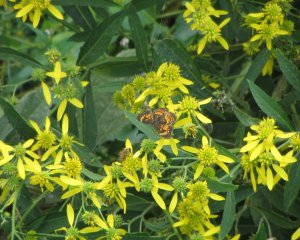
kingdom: Animalia
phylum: Arthropoda
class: Insecta
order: Lepidoptera
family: Nymphalidae
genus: Chlosyne
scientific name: Chlosyne nycteis
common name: Silvery Checkerspot
